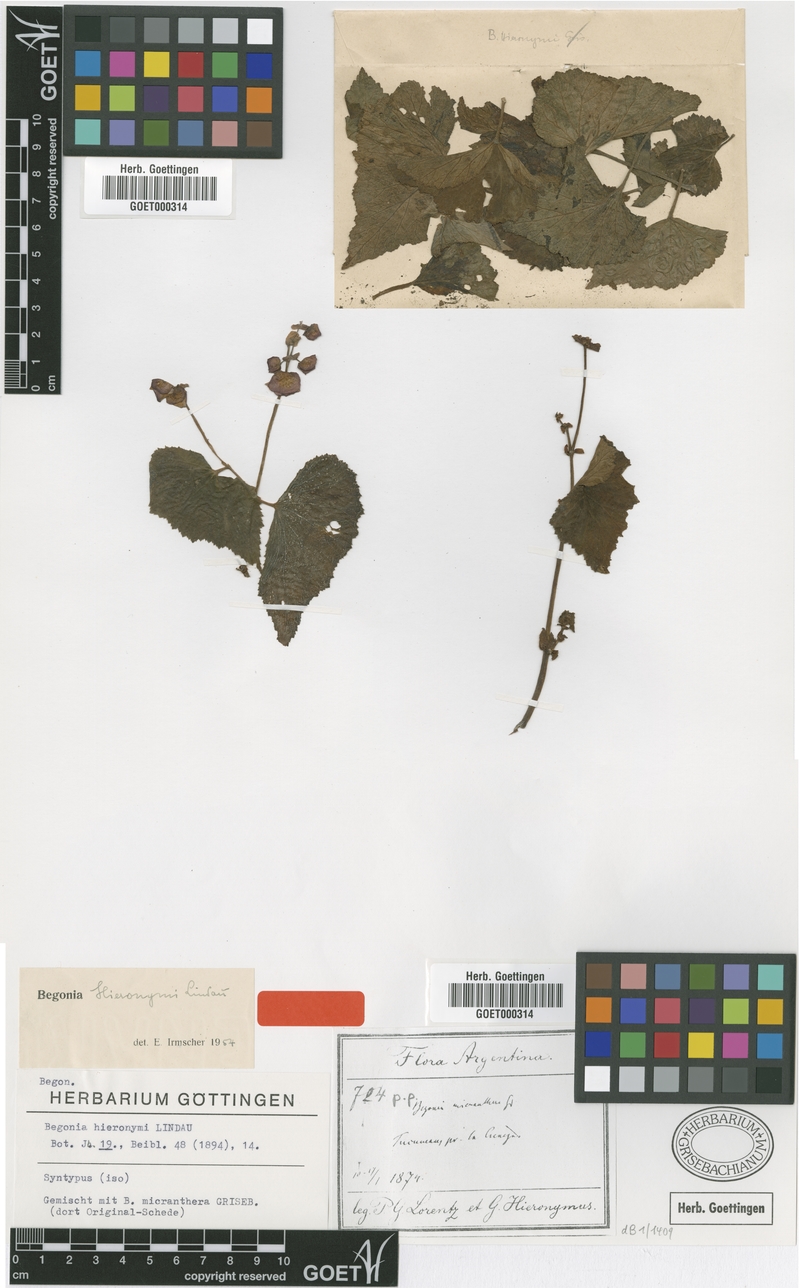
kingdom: Plantae
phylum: Tracheophyta
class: Magnoliopsida
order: Cucurbitales
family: Begoniaceae
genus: Begonia
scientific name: Begonia micranthera
